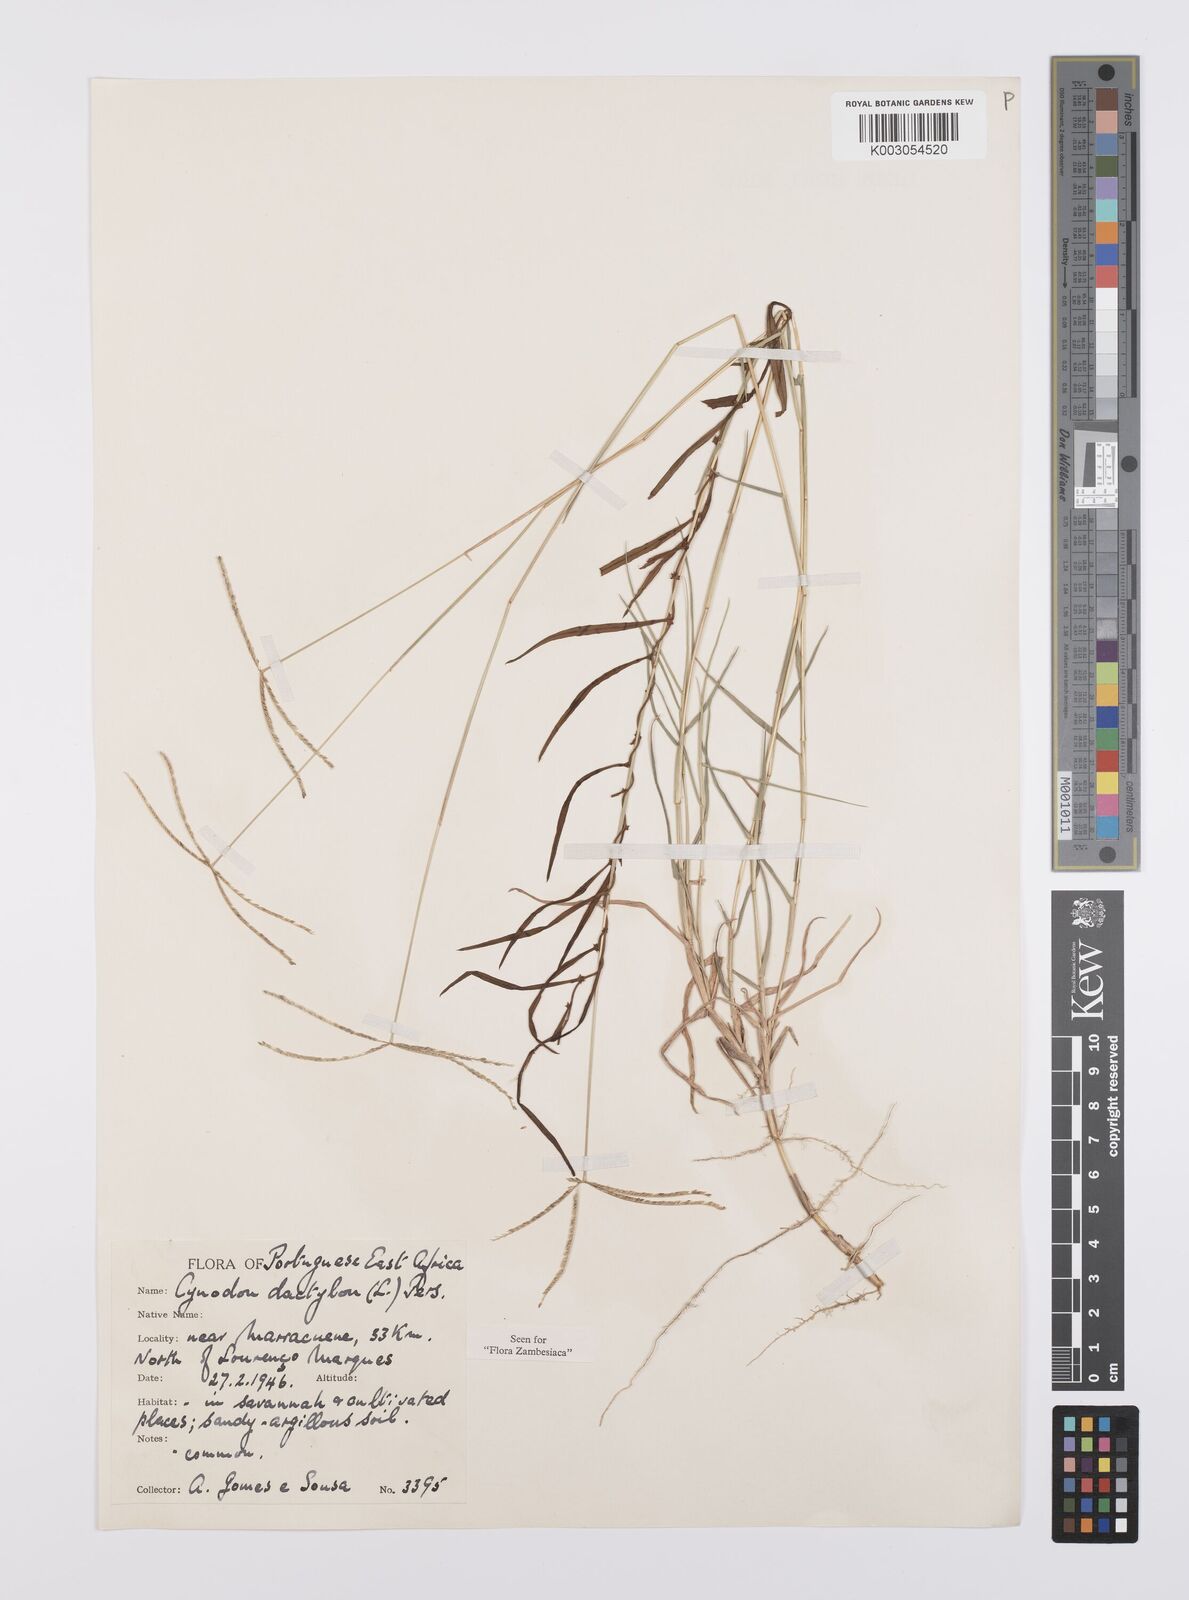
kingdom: Plantae
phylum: Tracheophyta
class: Liliopsida
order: Poales
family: Poaceae
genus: Cynodon
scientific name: Cynodon dactylon
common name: Bermuda grass
